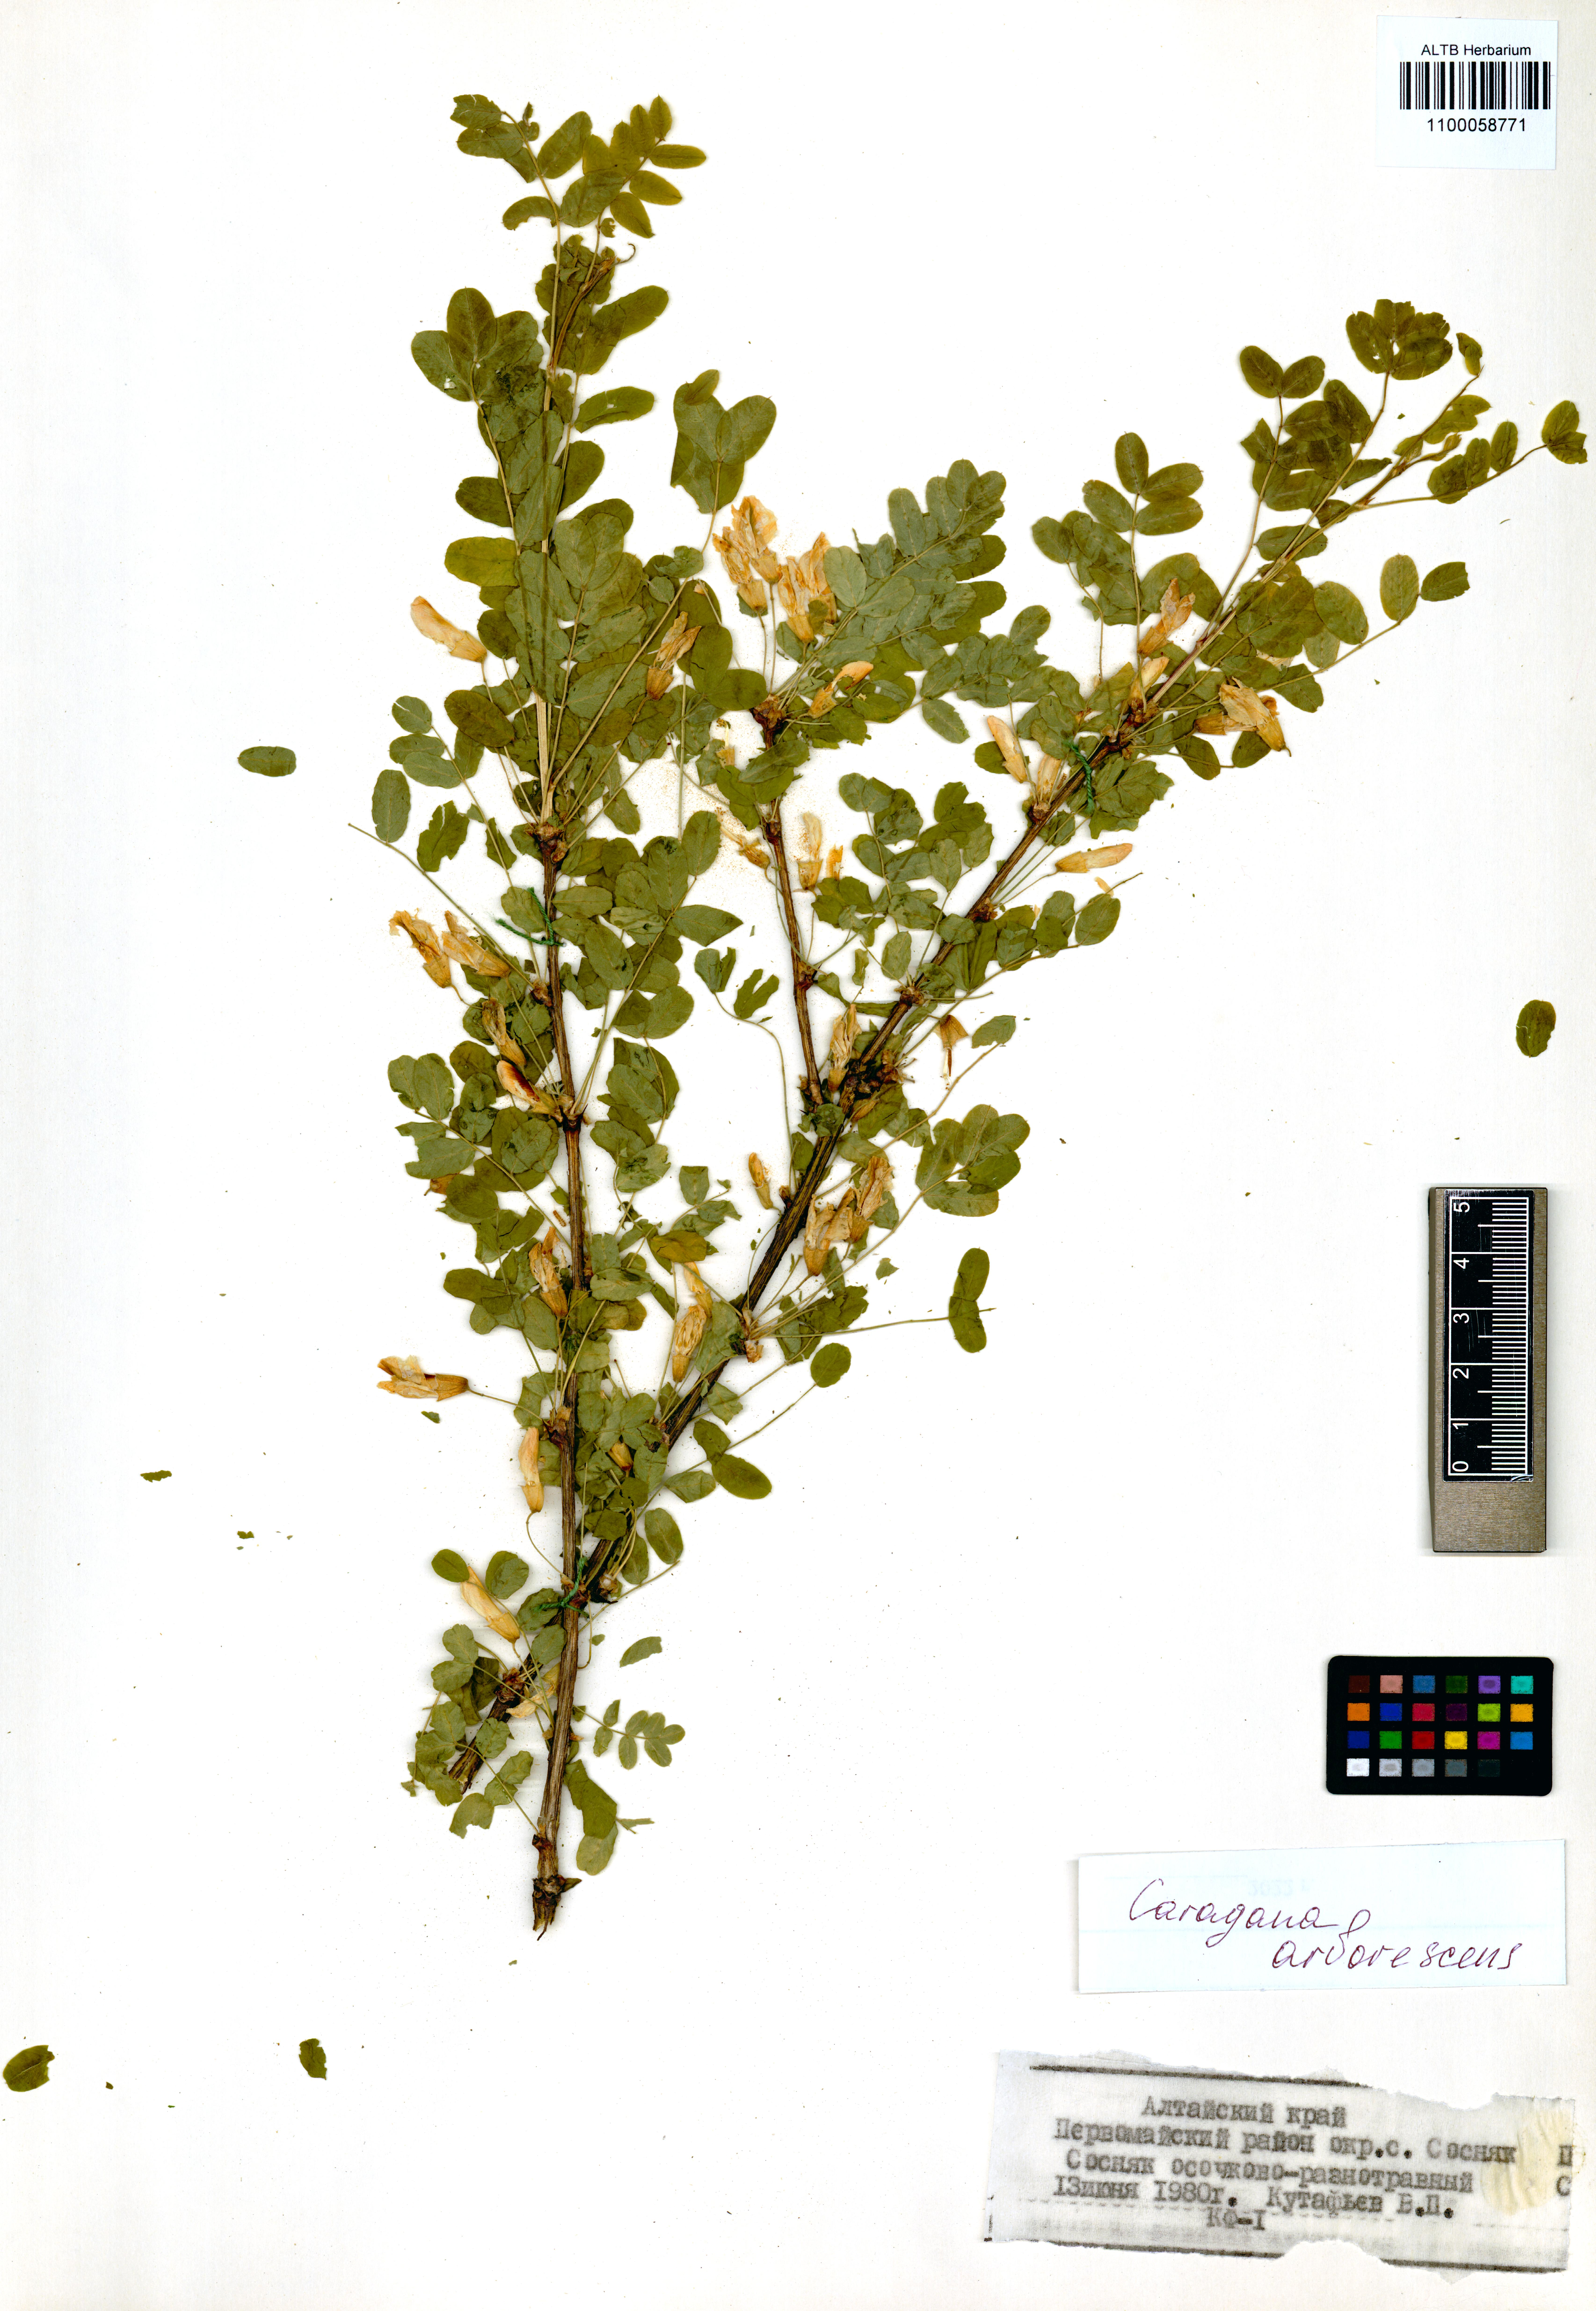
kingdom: Plantae
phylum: Tracheophyta
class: Magnoliopsida
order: Fabales
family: Fabaceae
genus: Caragana
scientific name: Caragana arborescens
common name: Siberian peashrub
